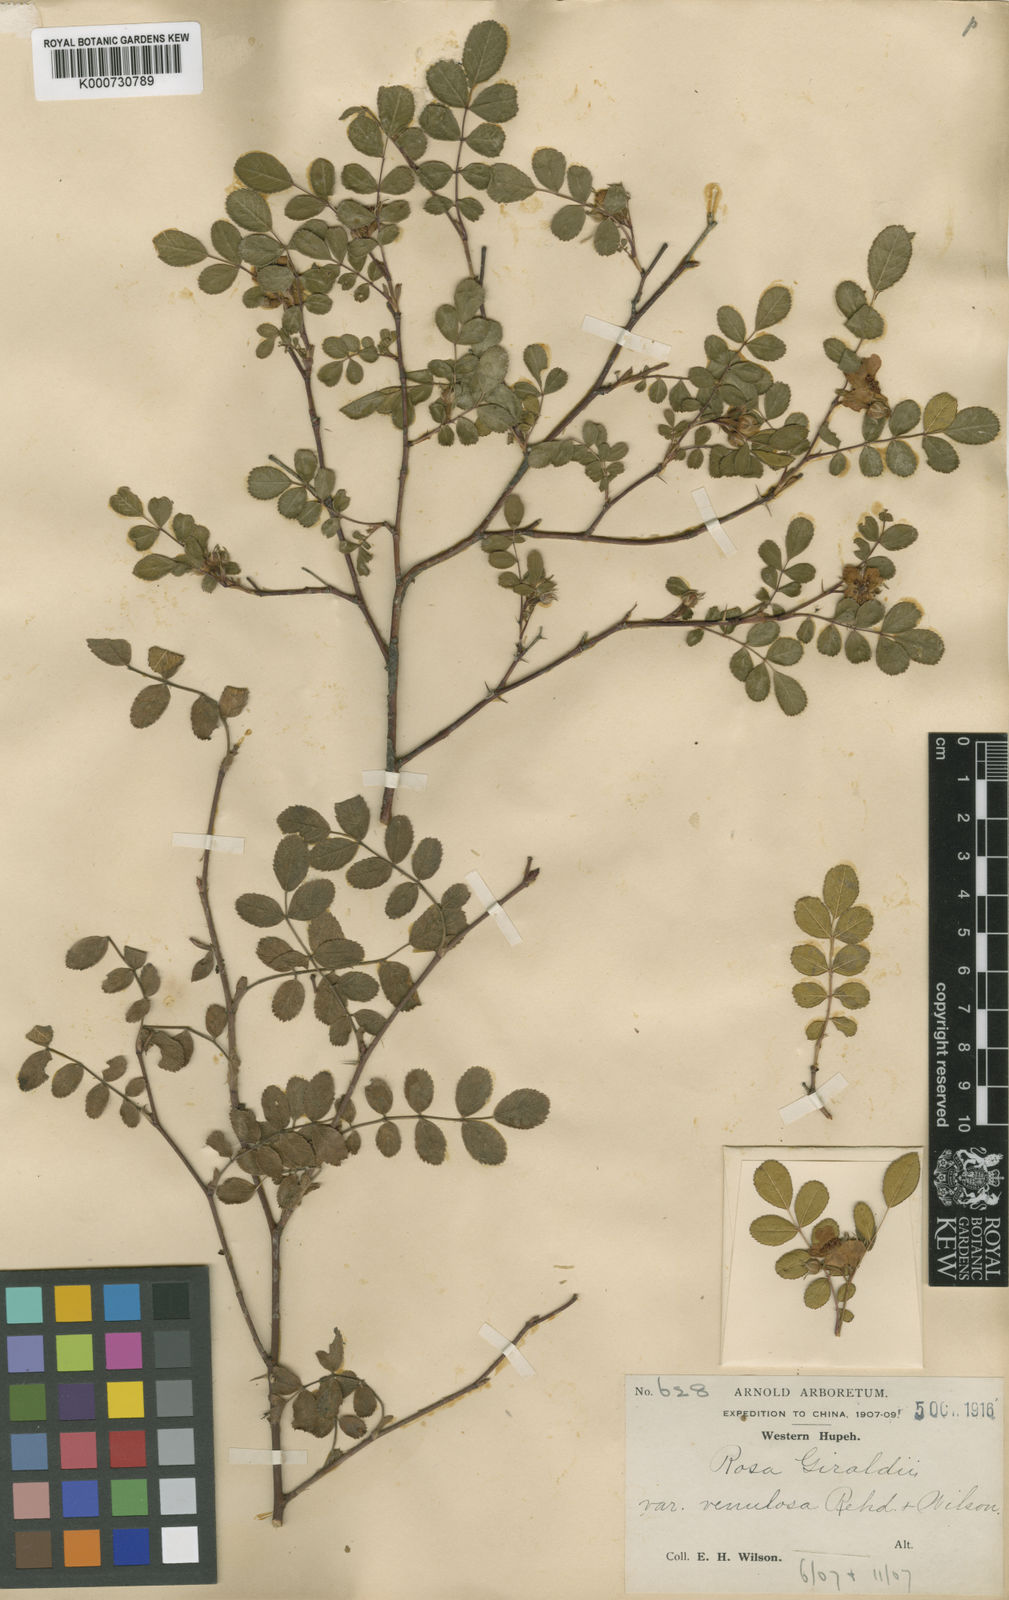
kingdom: Plantae
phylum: Tracheophyta
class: Magnoliopsida
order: Rosales
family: Rosaceae
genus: Rosa
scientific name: Rosa
